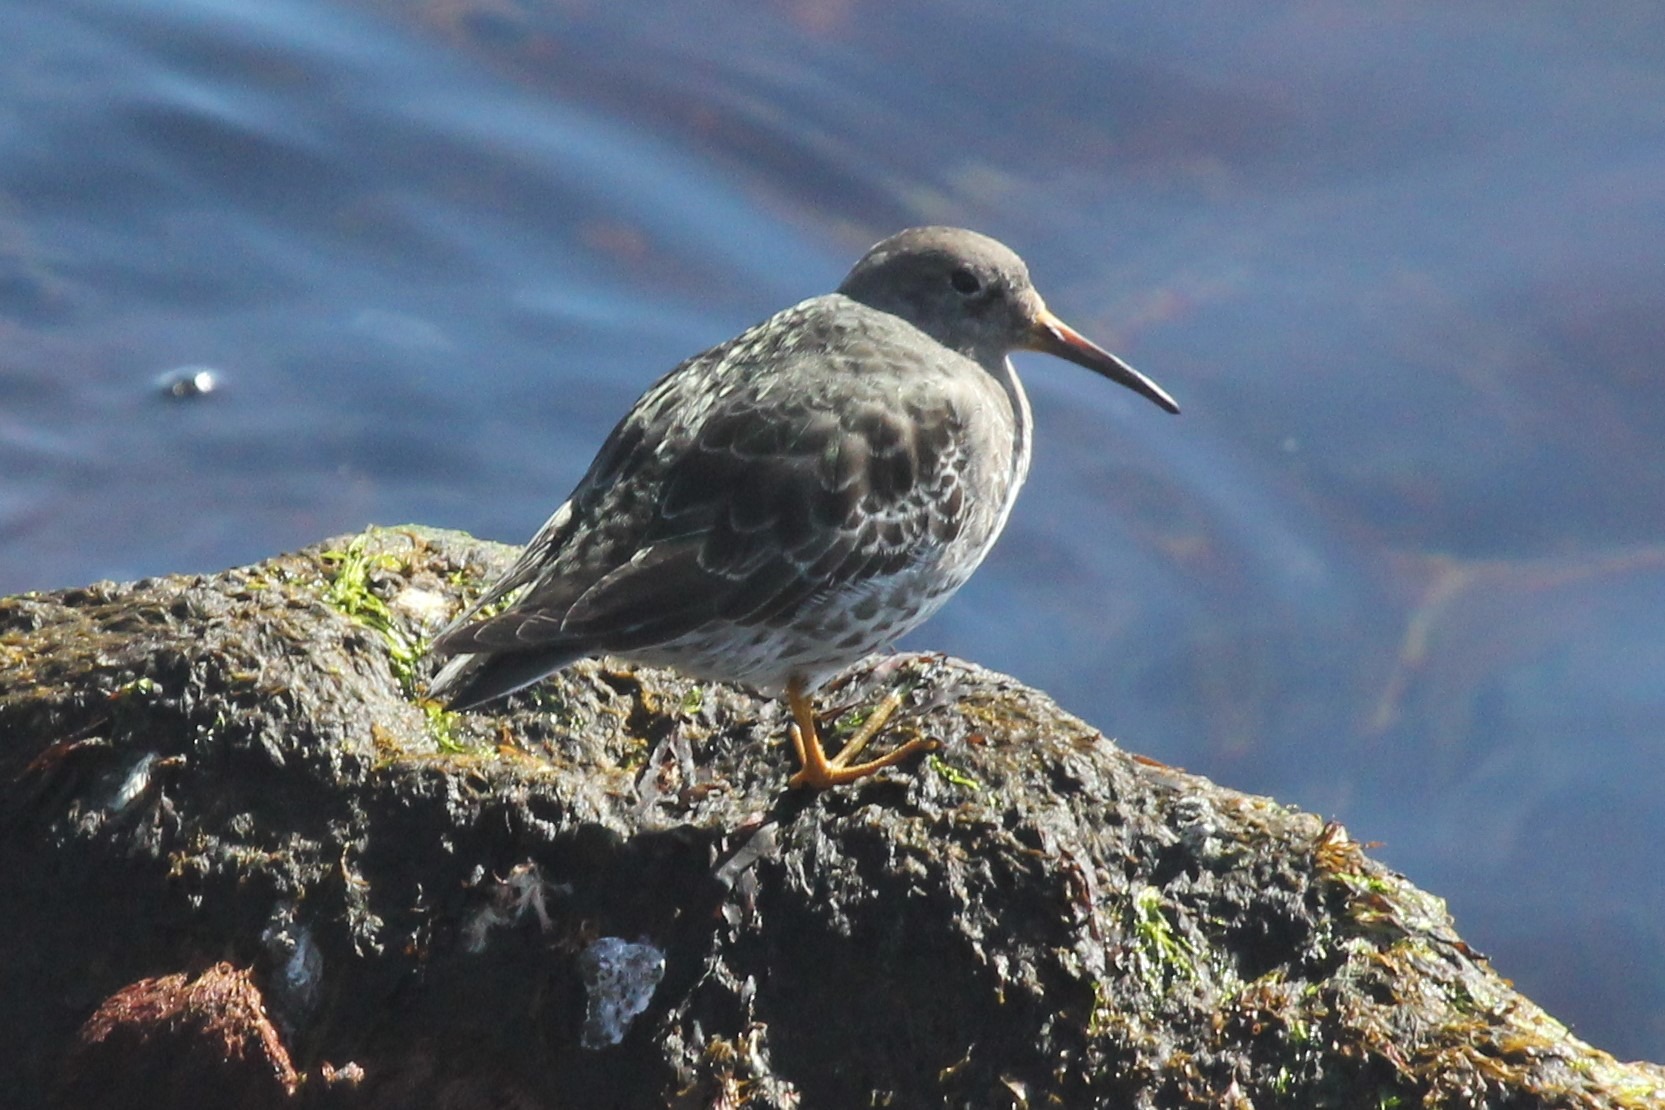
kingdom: Animalia
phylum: Chordata
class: Aves
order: Charadriiformes
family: Scolopacidae
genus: Calidris
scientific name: Calidris maritima
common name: Sortgrå ryle
